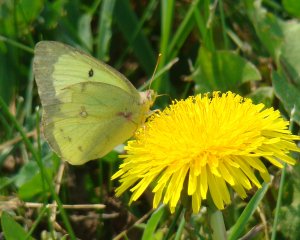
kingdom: Animalia
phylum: Arthropoda
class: Insecta
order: Lepidoptera
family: Pieridae
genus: Colias
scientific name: Colias philodice
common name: Clouded Sulphur
